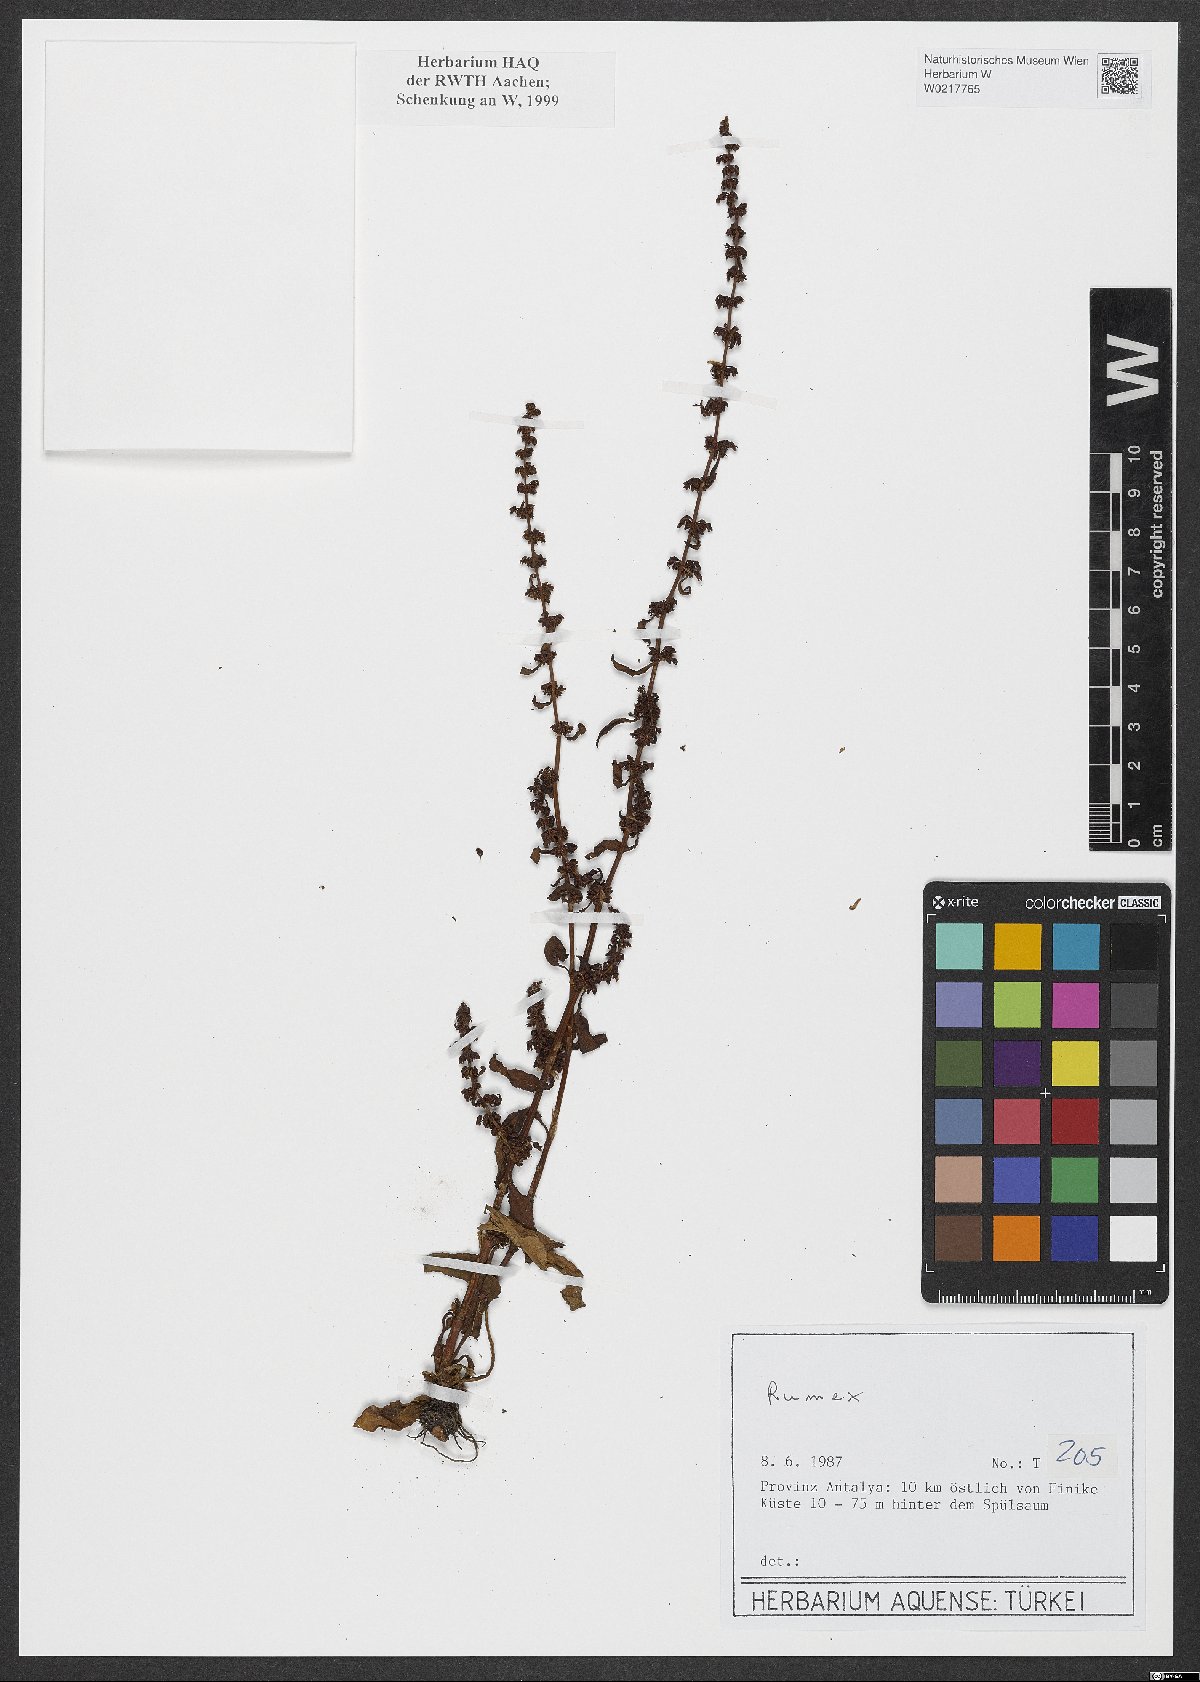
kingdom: Plantae
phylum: Tracheophyta
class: Magnoliopsida
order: Caryophyllales
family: Polygonaceae
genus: Rumex
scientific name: Rumex
